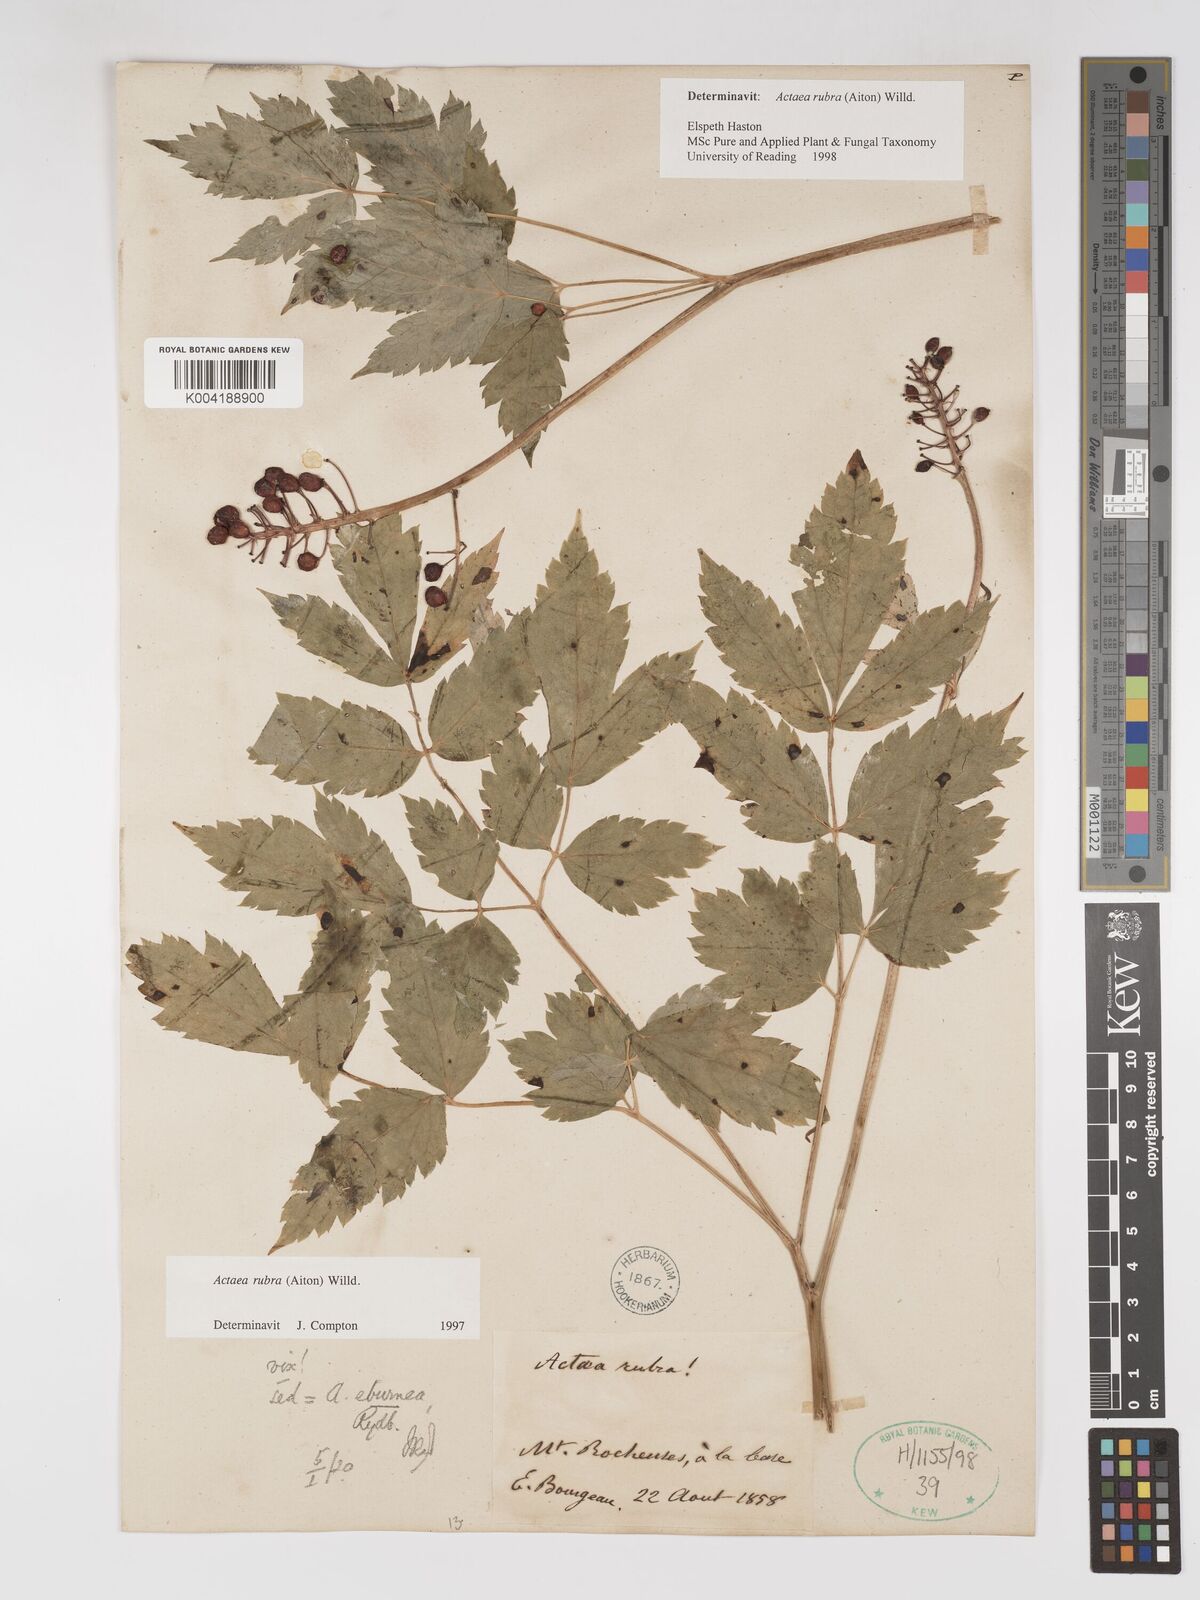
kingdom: Plantae
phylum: Tracheophyta
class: Magnoliopsida
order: Ranunculales
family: Ranunculaceae
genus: Actaea
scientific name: Actaea rubra
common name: Red baneberry
